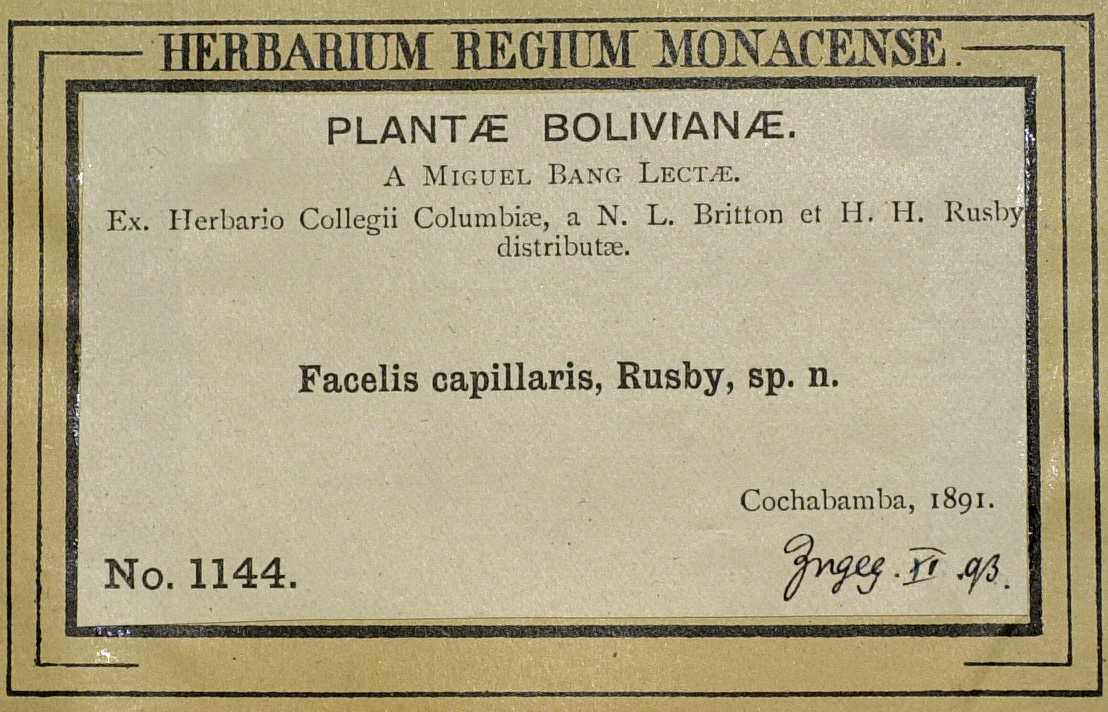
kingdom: Plantae
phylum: Tracheophyta
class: Magnoliopsida
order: Asterales
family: Asteraceae
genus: Facelis
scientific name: Facelis lasiocarpa
